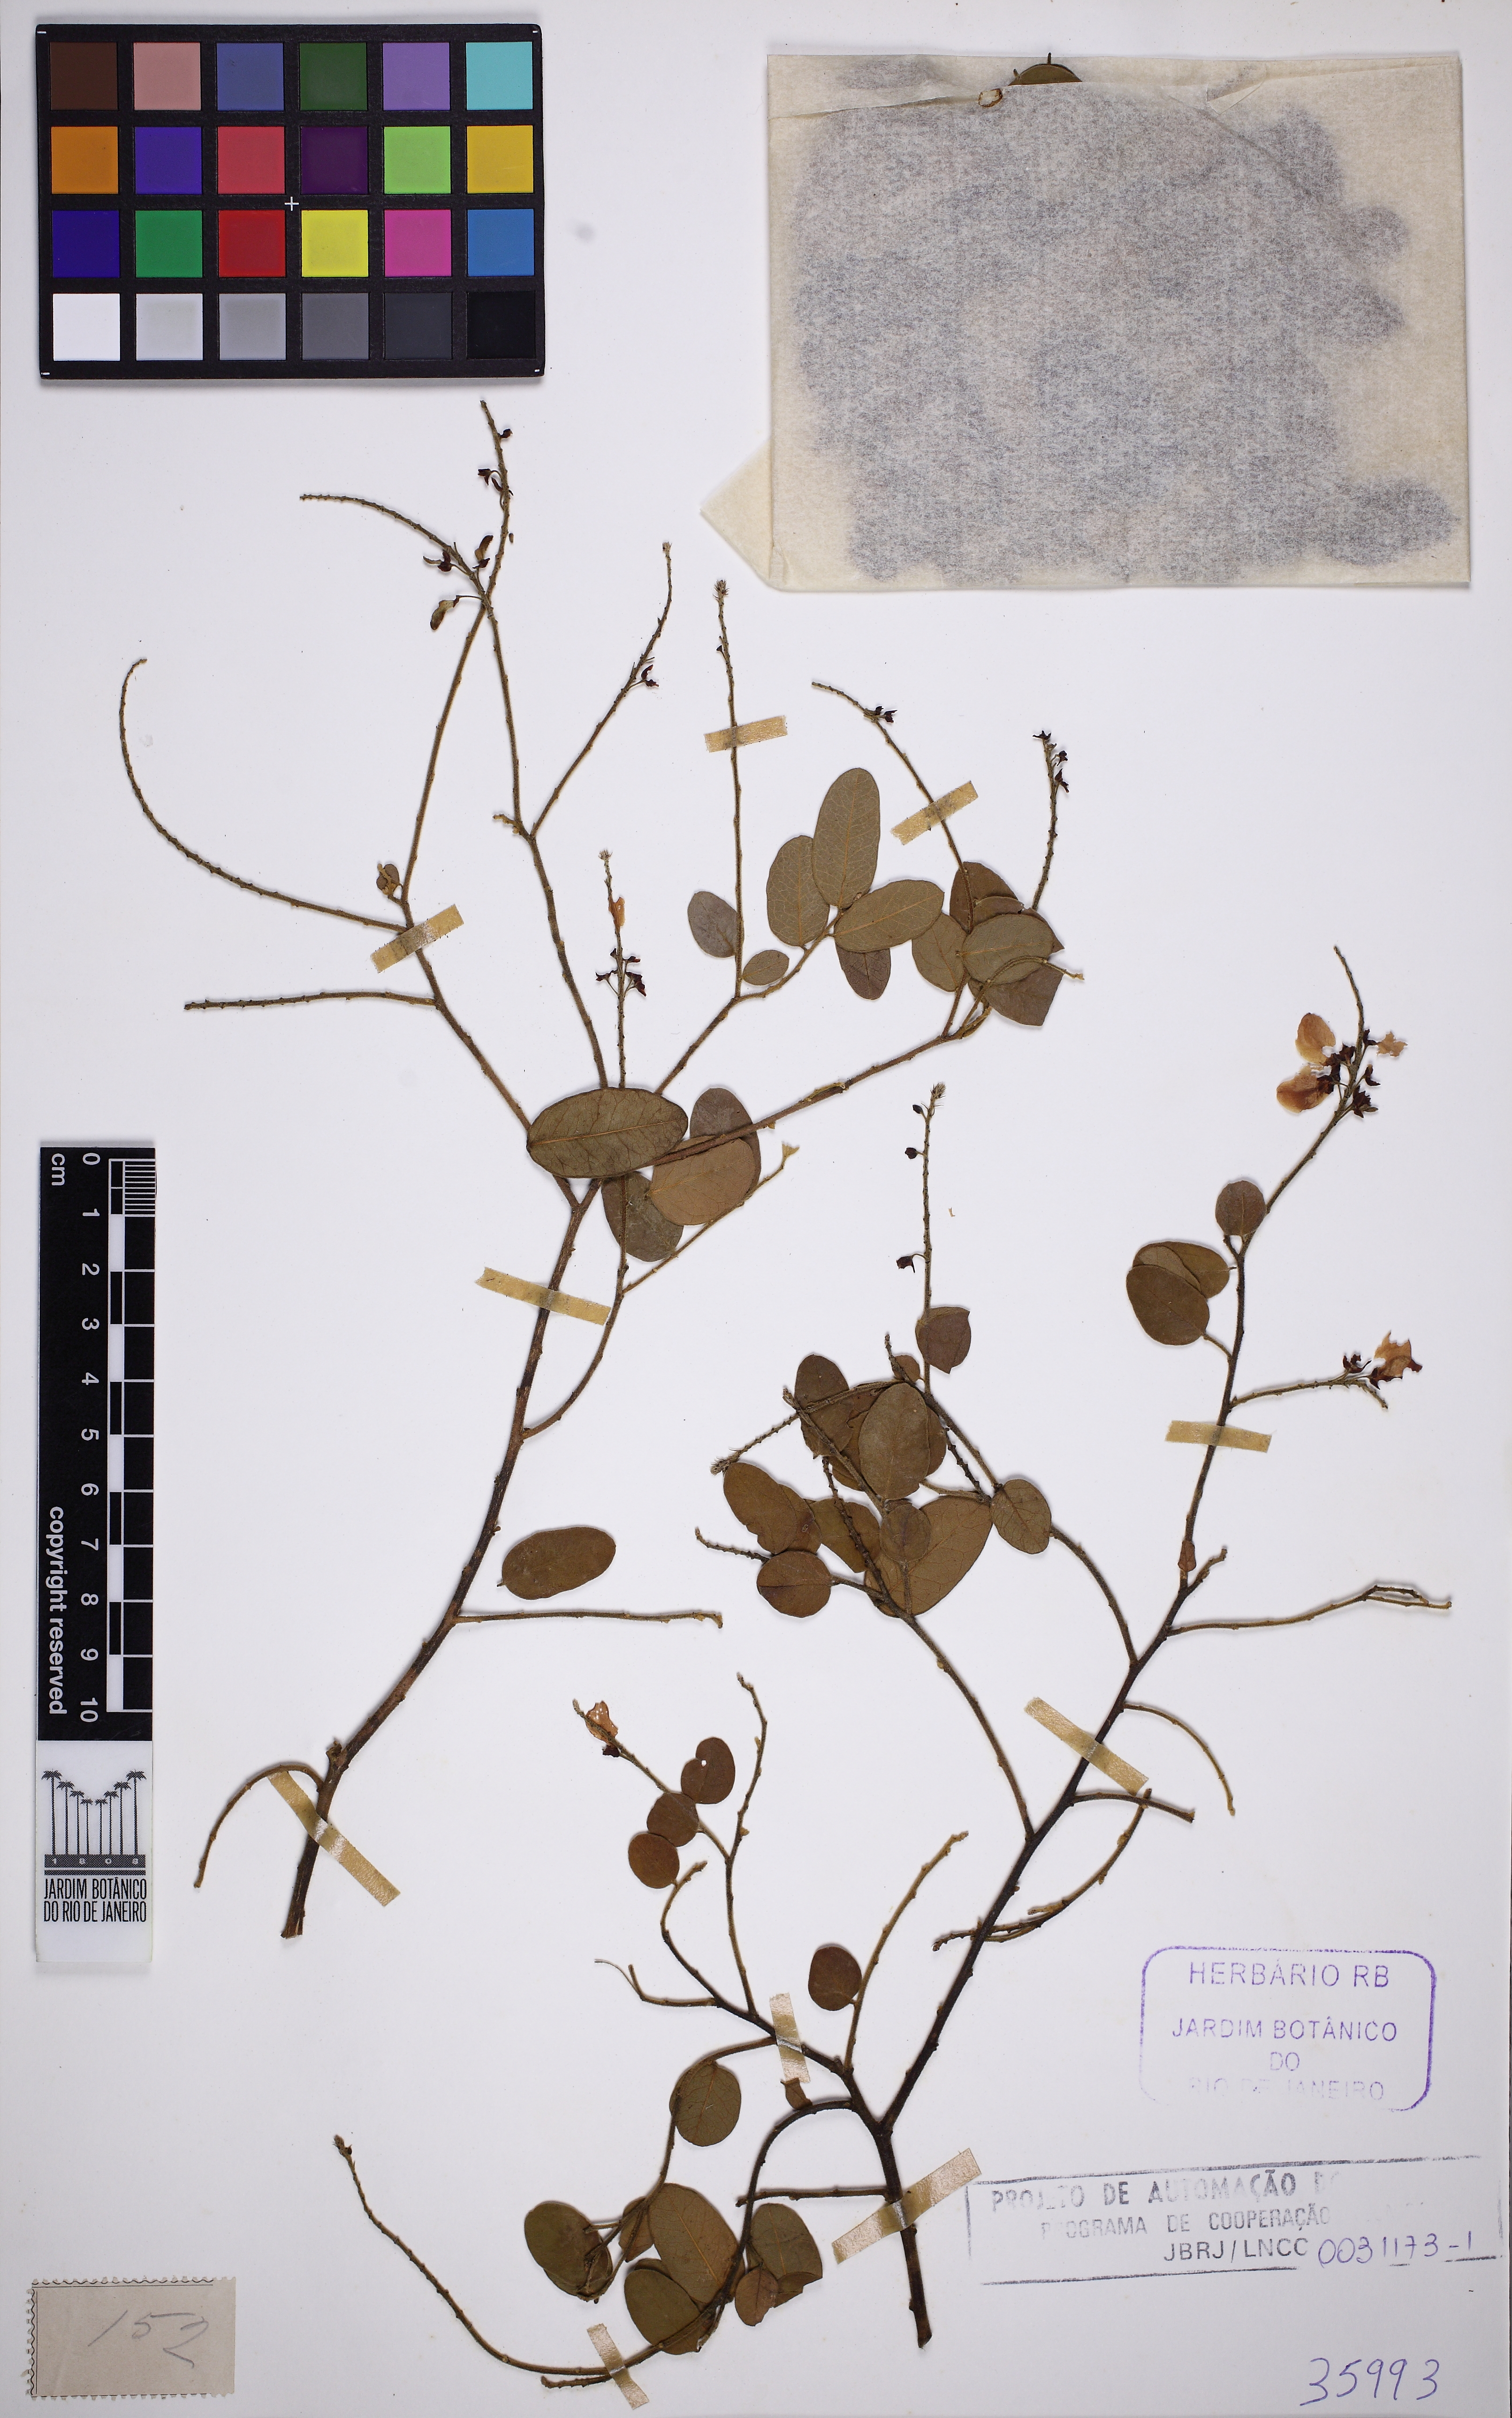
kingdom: Plantae
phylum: Tracheophyta
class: Magnoliopsida
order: Fabales
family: Polygalaceae
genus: Securidaca
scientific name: Securidaca rivinifolia
